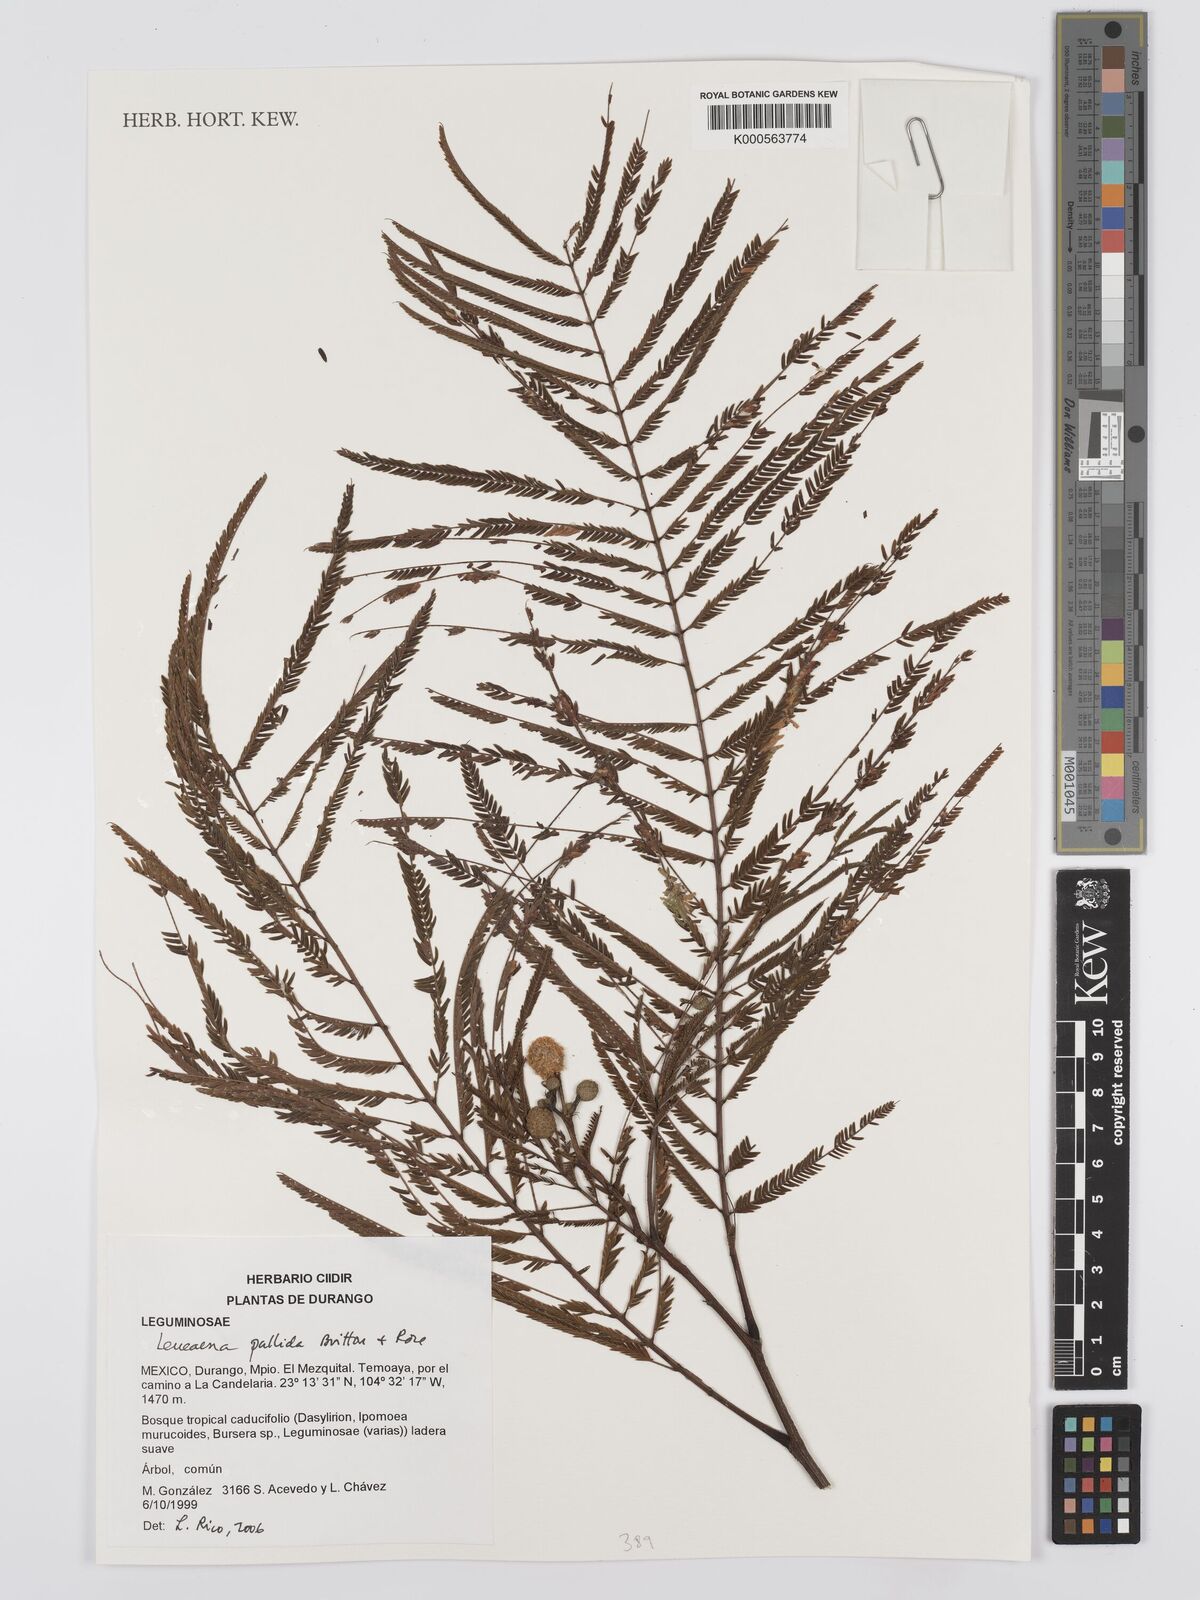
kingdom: Plantae
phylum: Tracheophyta
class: Magnoliopsida
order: Fabales
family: Fabaceae
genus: Leucaena
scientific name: Leucaena pallida
